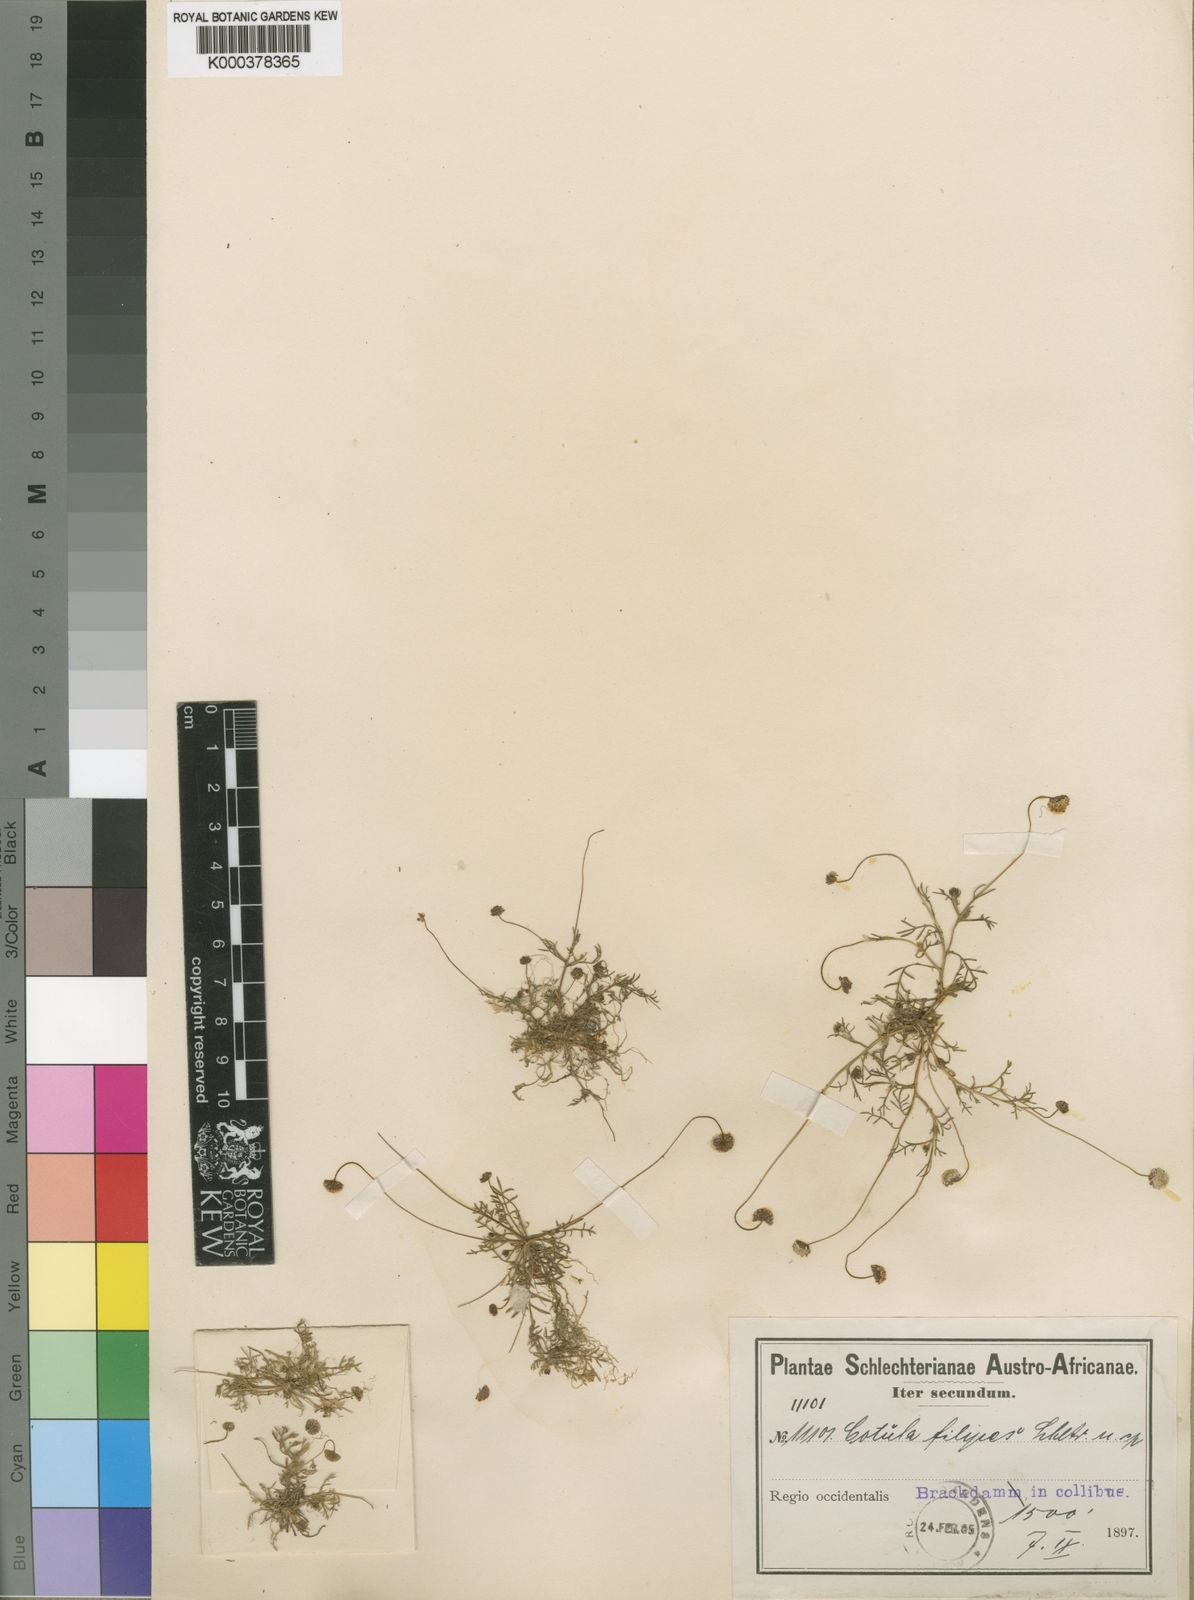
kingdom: Plantae
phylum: Tracheophyta
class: Magnoliopsida
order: Asterales
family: Asteraceae
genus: Cotula
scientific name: Cotula
